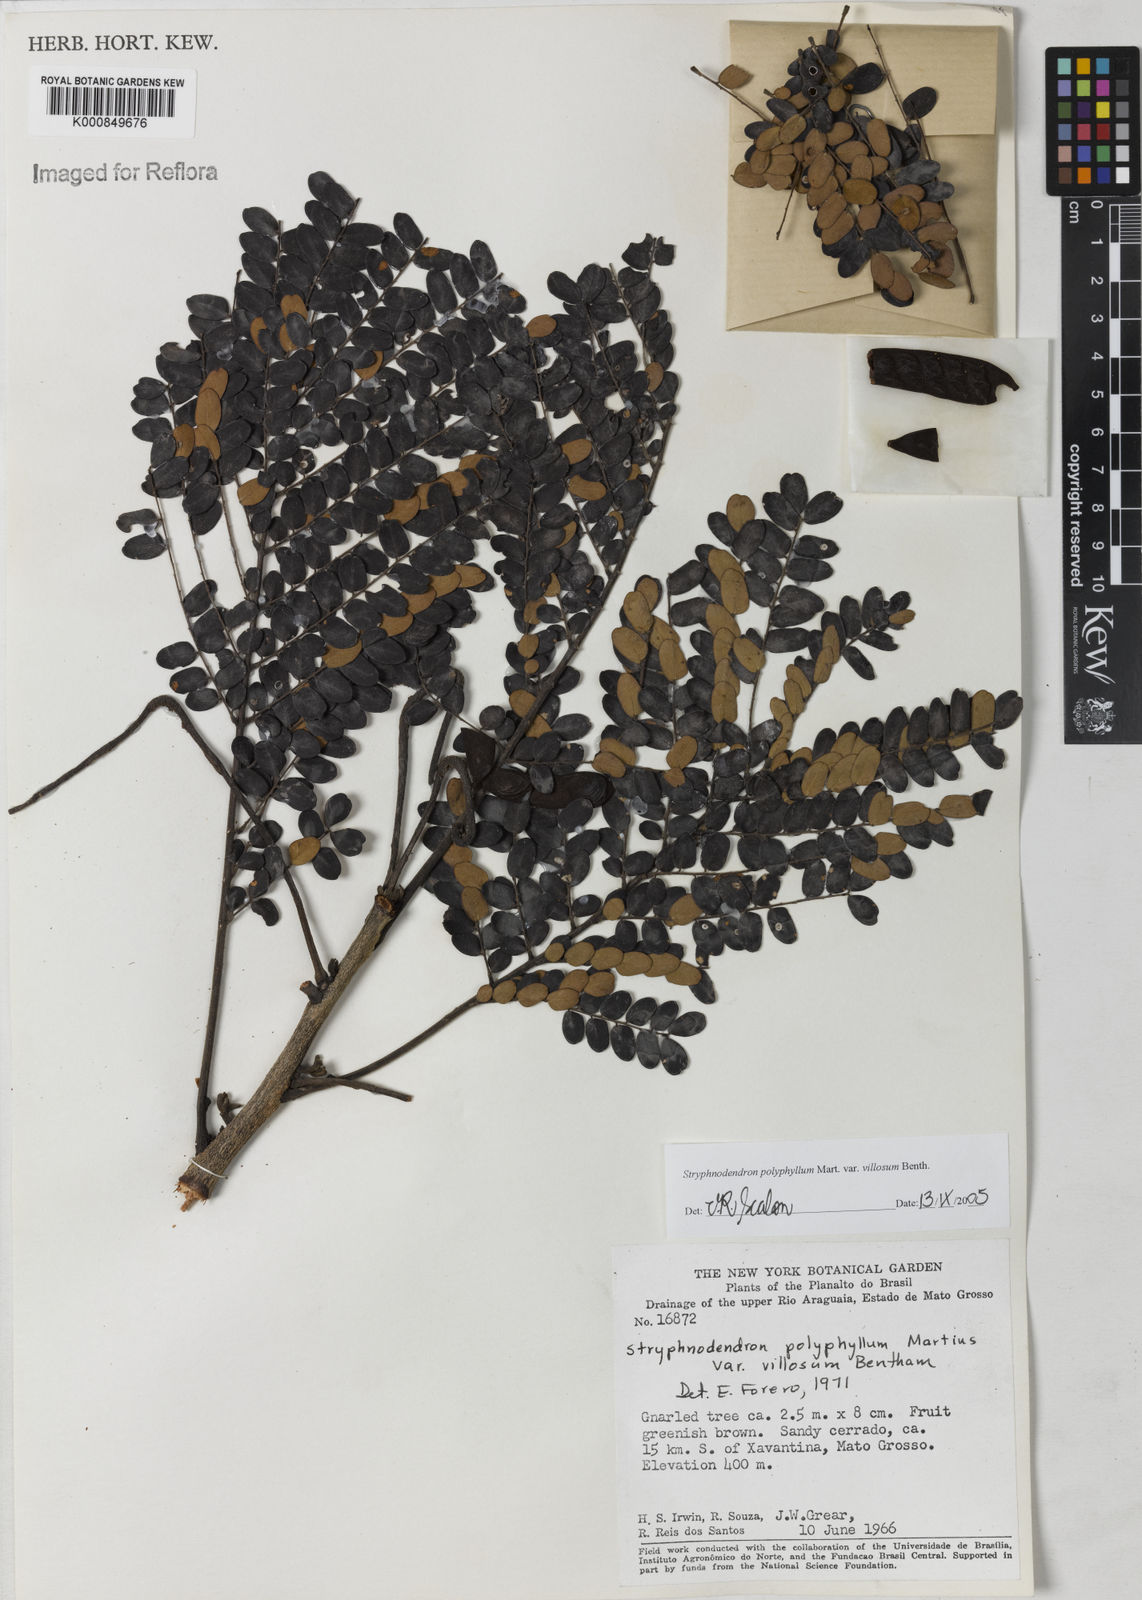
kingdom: Plantae
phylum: Tracheophyta
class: Magnoliopsida
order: Fabales
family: Fabaceae
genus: Stryphnodendron
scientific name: Stryphnodendron polyphyllum
